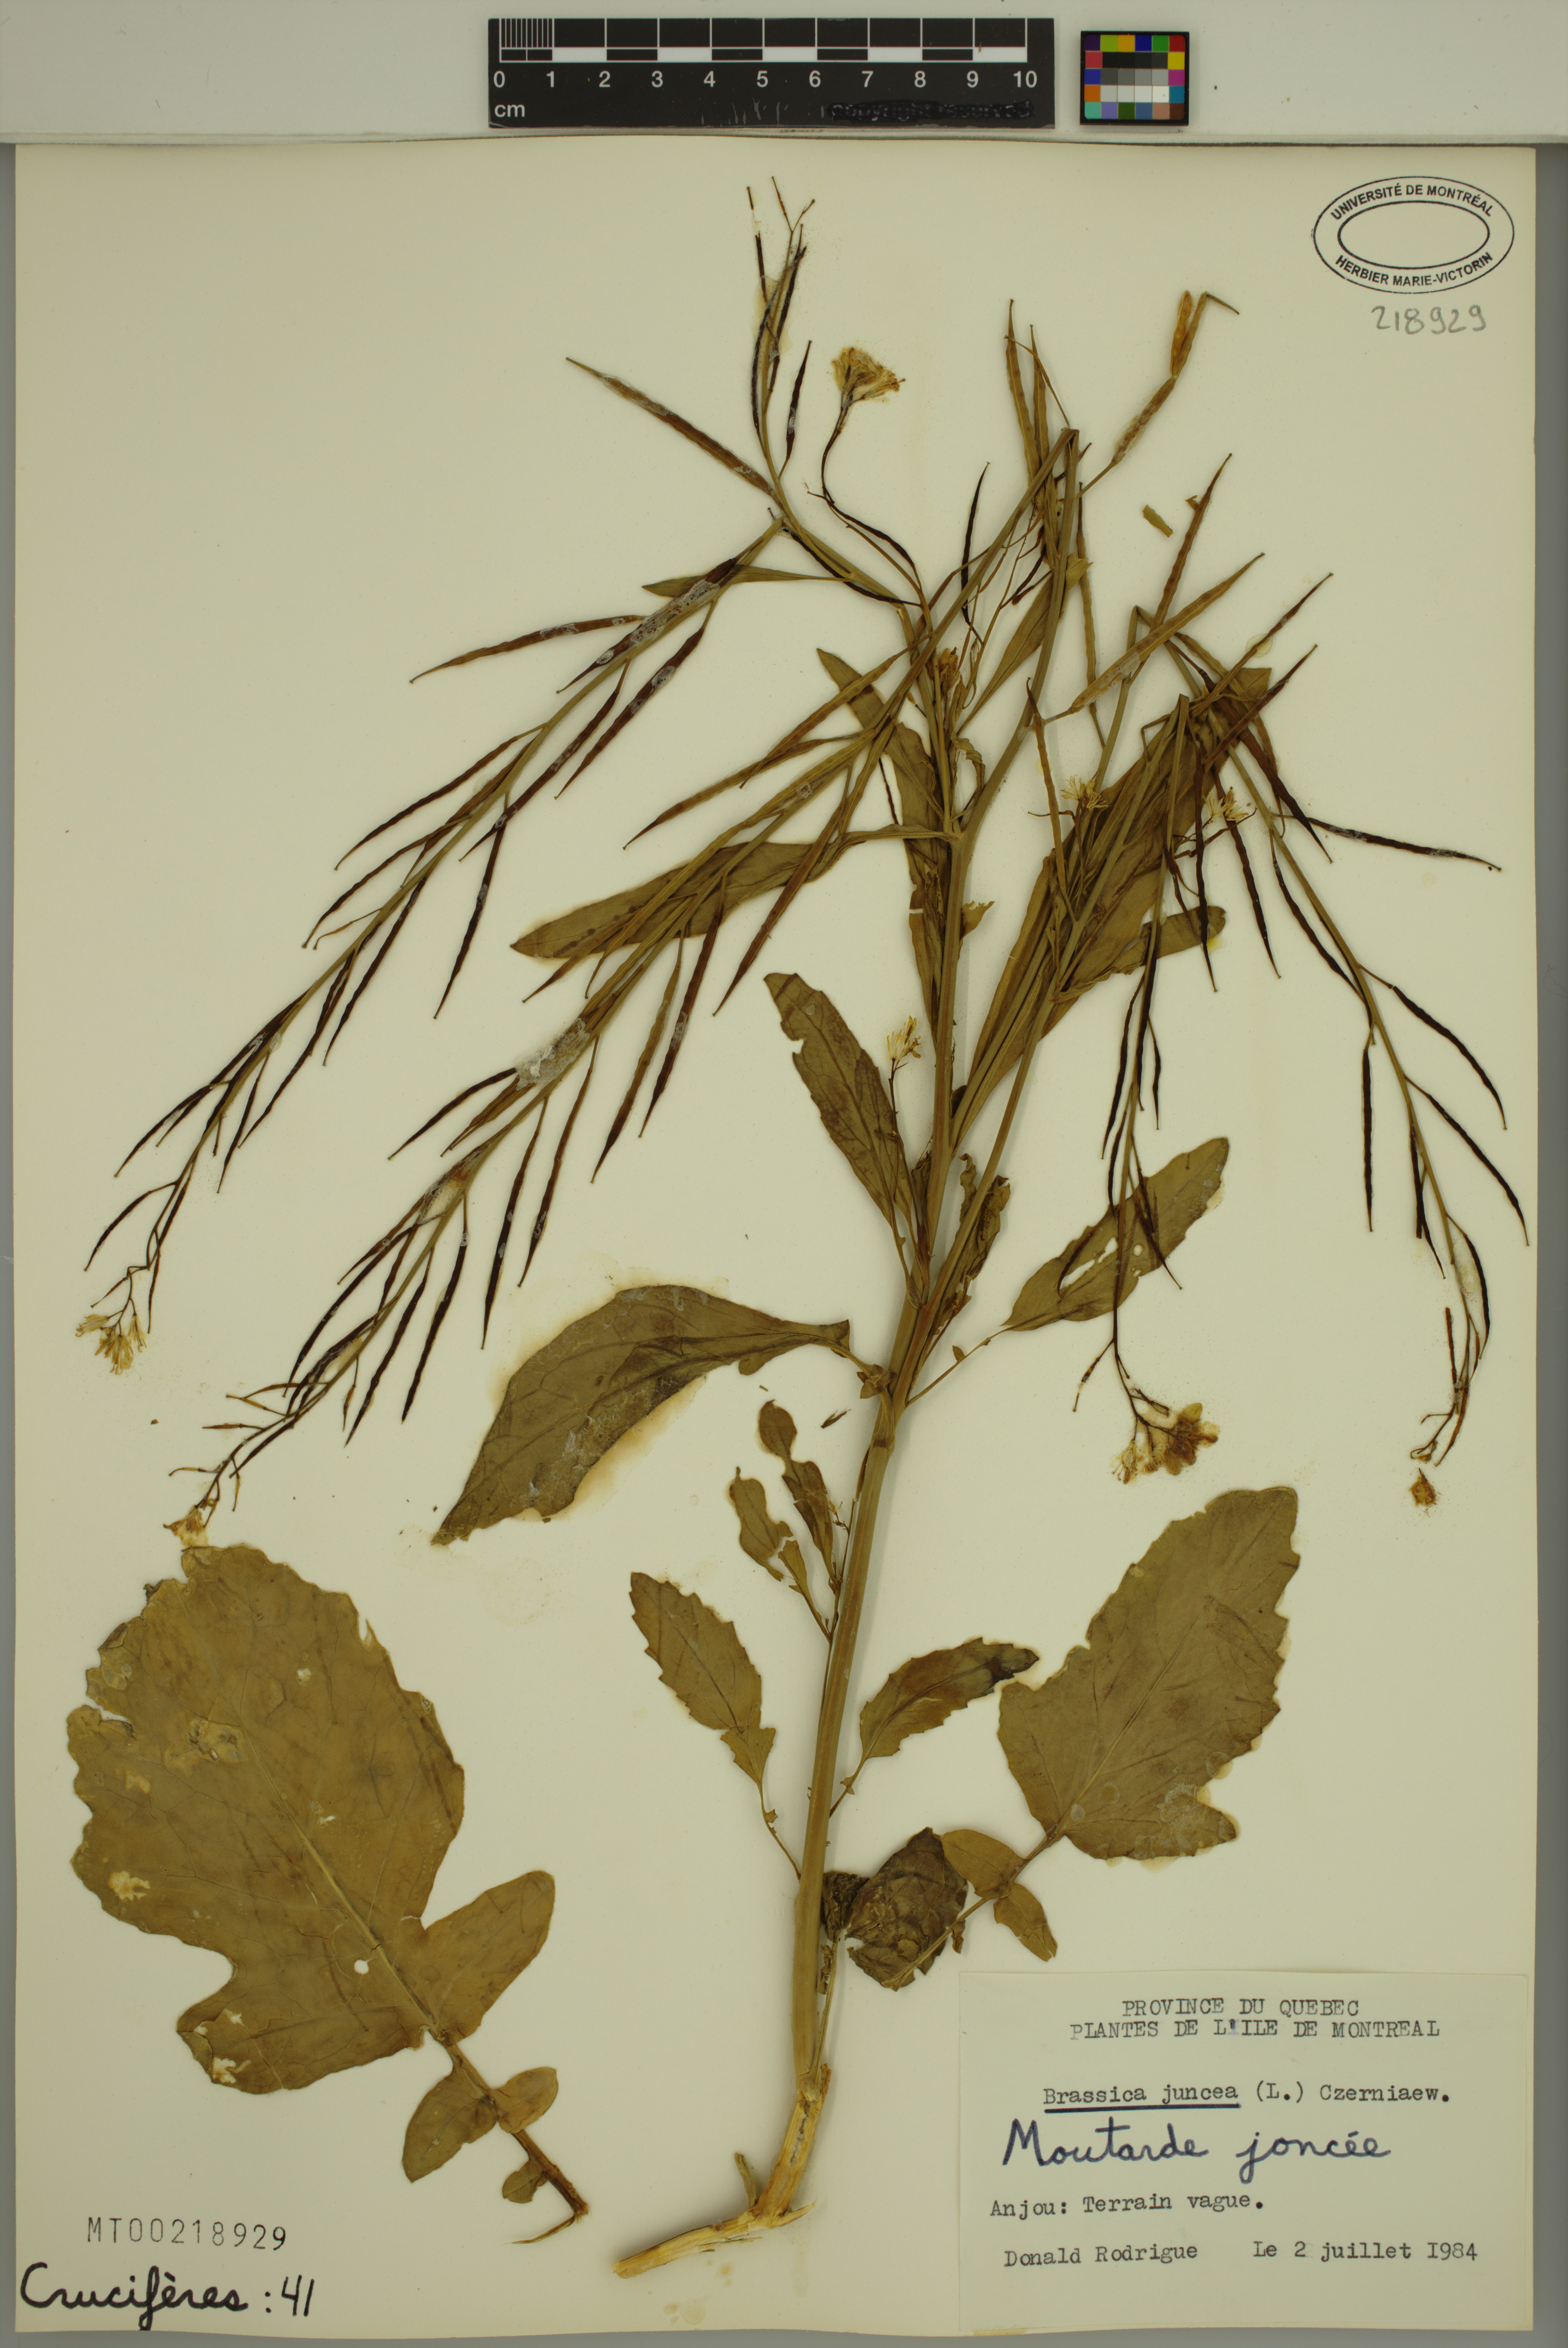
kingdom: Plantae
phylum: Tracheophyta
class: Magnoliopsida
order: Brassicales
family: Brassicaceae
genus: Brassica
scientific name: Brassica juncea
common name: Brown mustard
